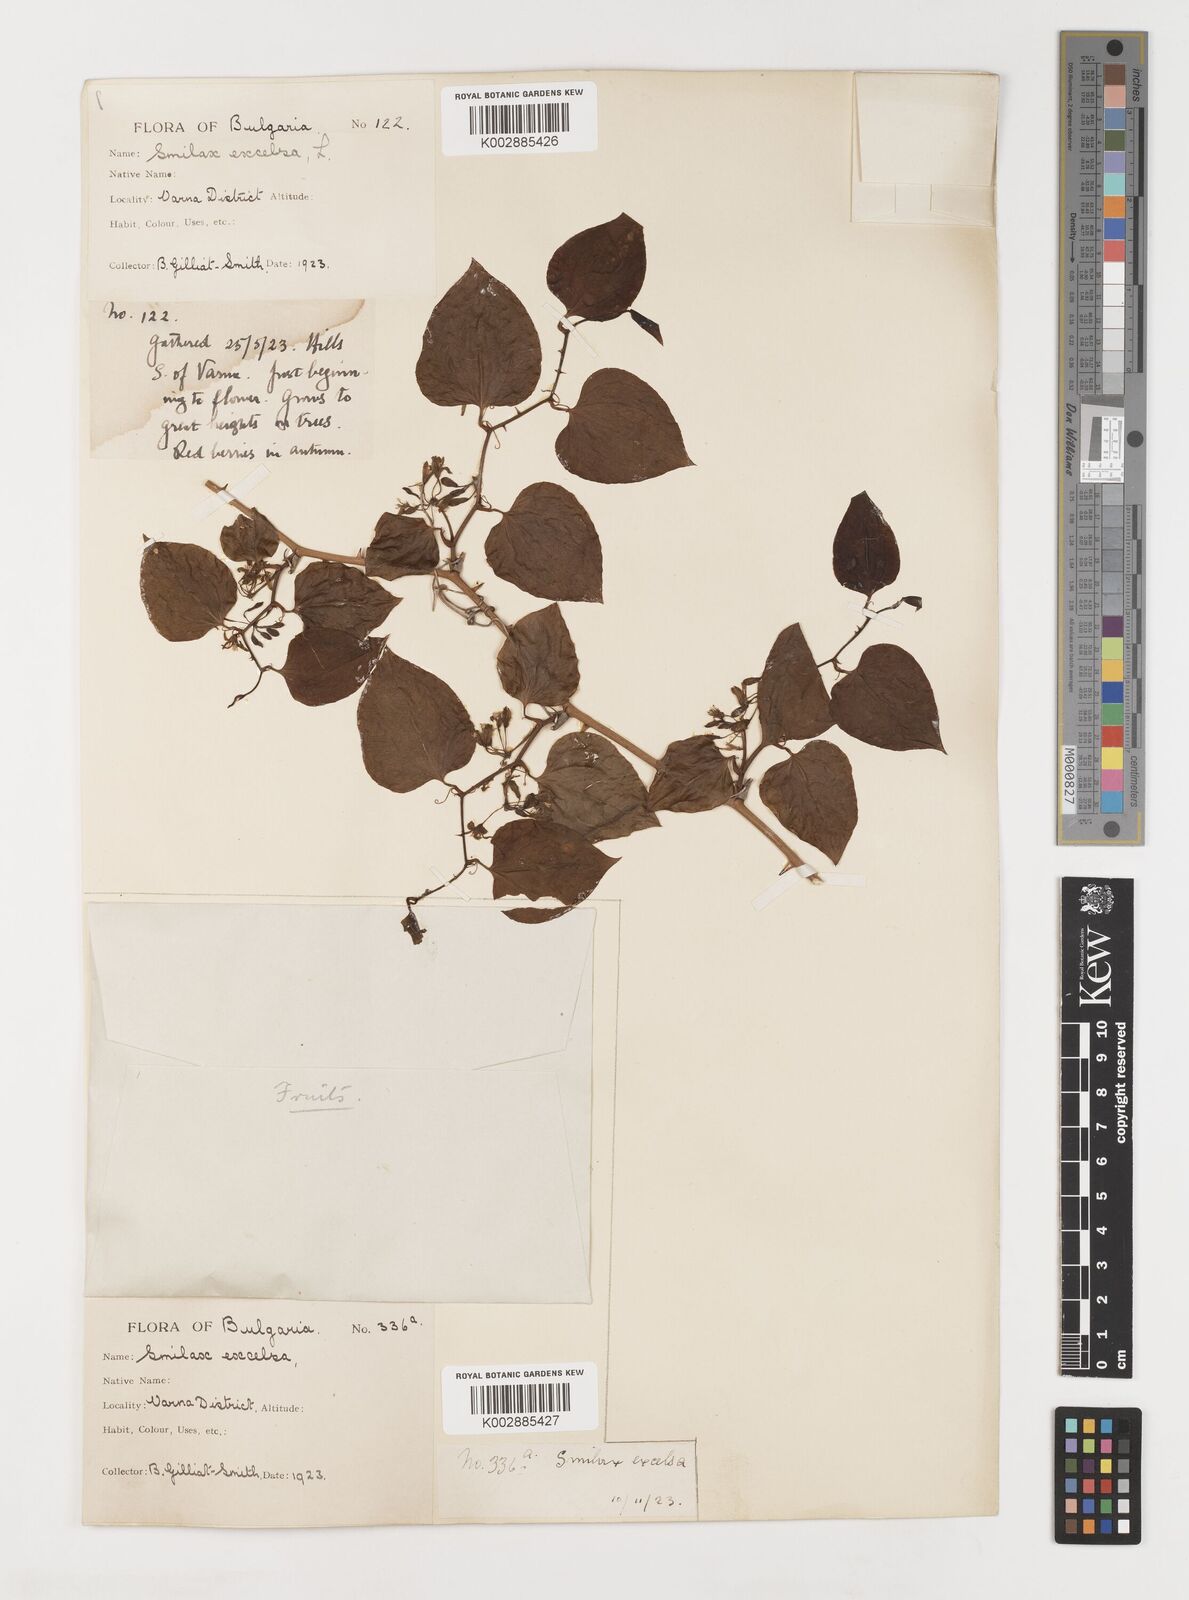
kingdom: Plantae
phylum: Tracheophyta
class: Liliopsida
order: Liliales
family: Smilacaceae
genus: Smilax
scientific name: Smilax excelsa
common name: Larger smilax
